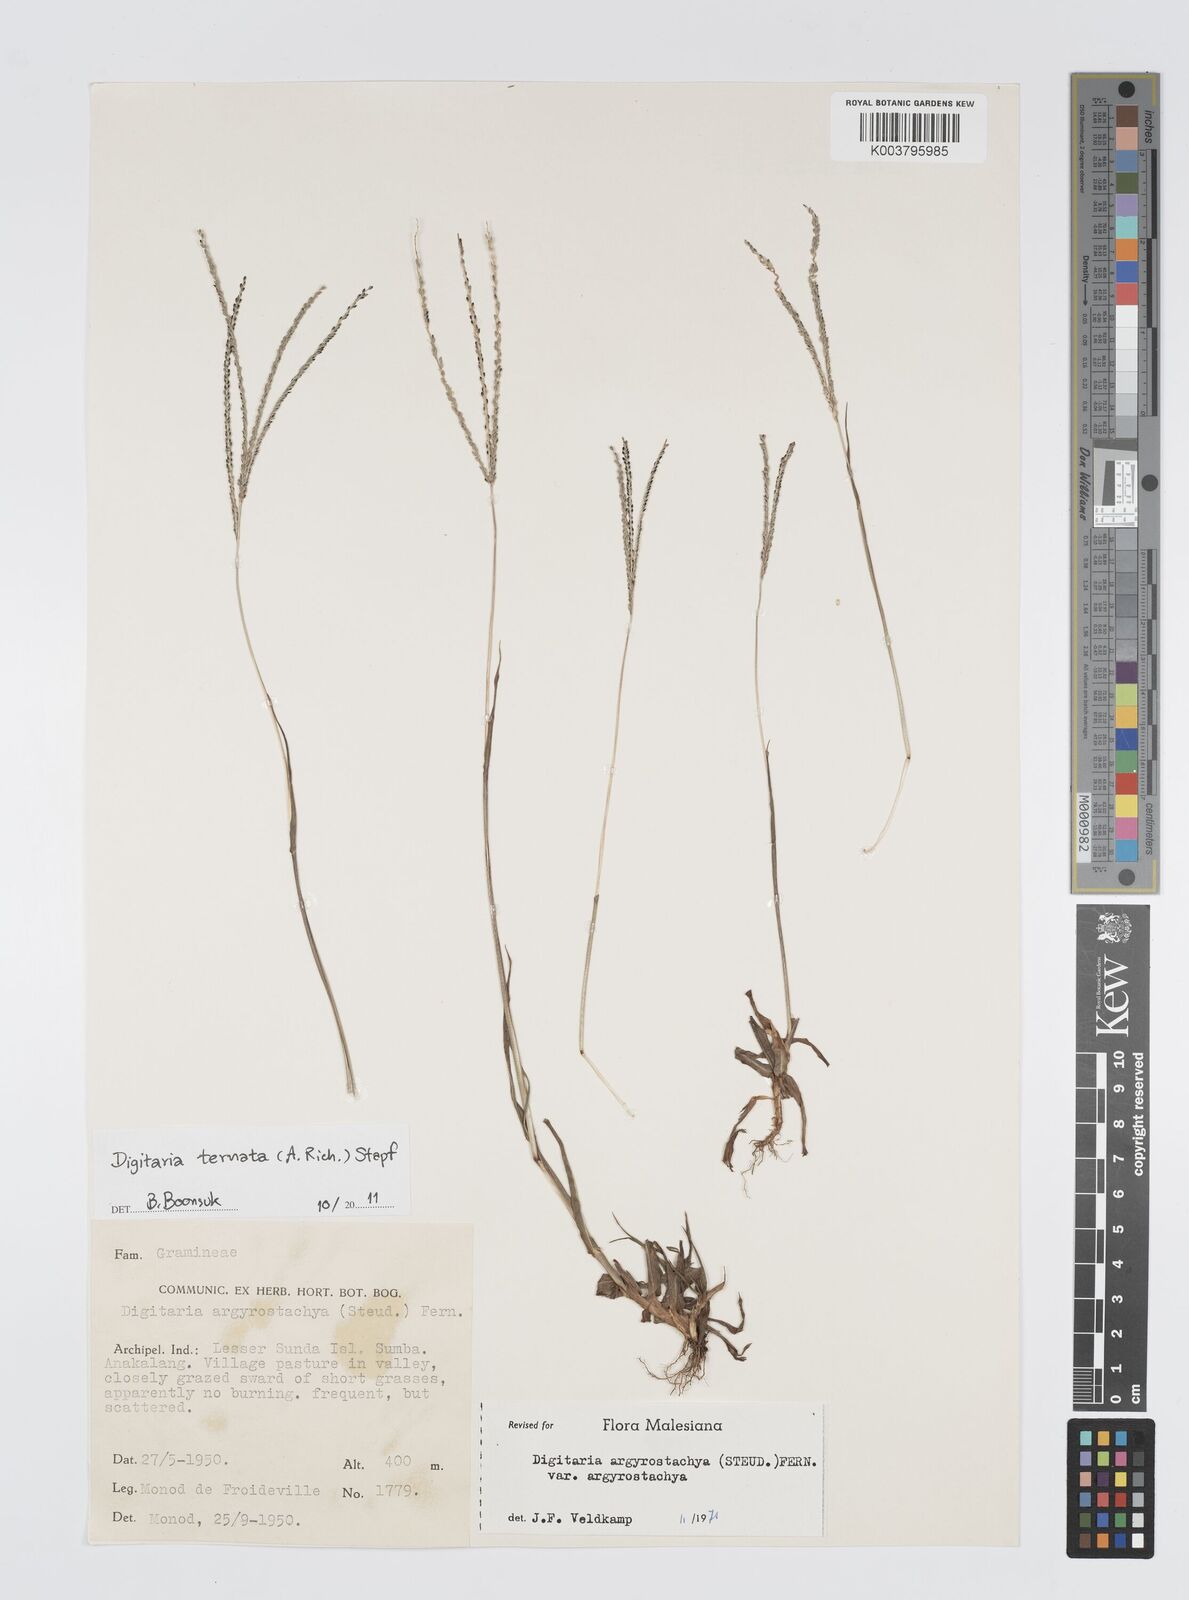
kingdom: Plantae
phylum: Tracheophyta
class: Liliopsida
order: Poales
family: Poaceae
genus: Digitaria
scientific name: Digitaria ternata
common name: Blackseed crabgrass
